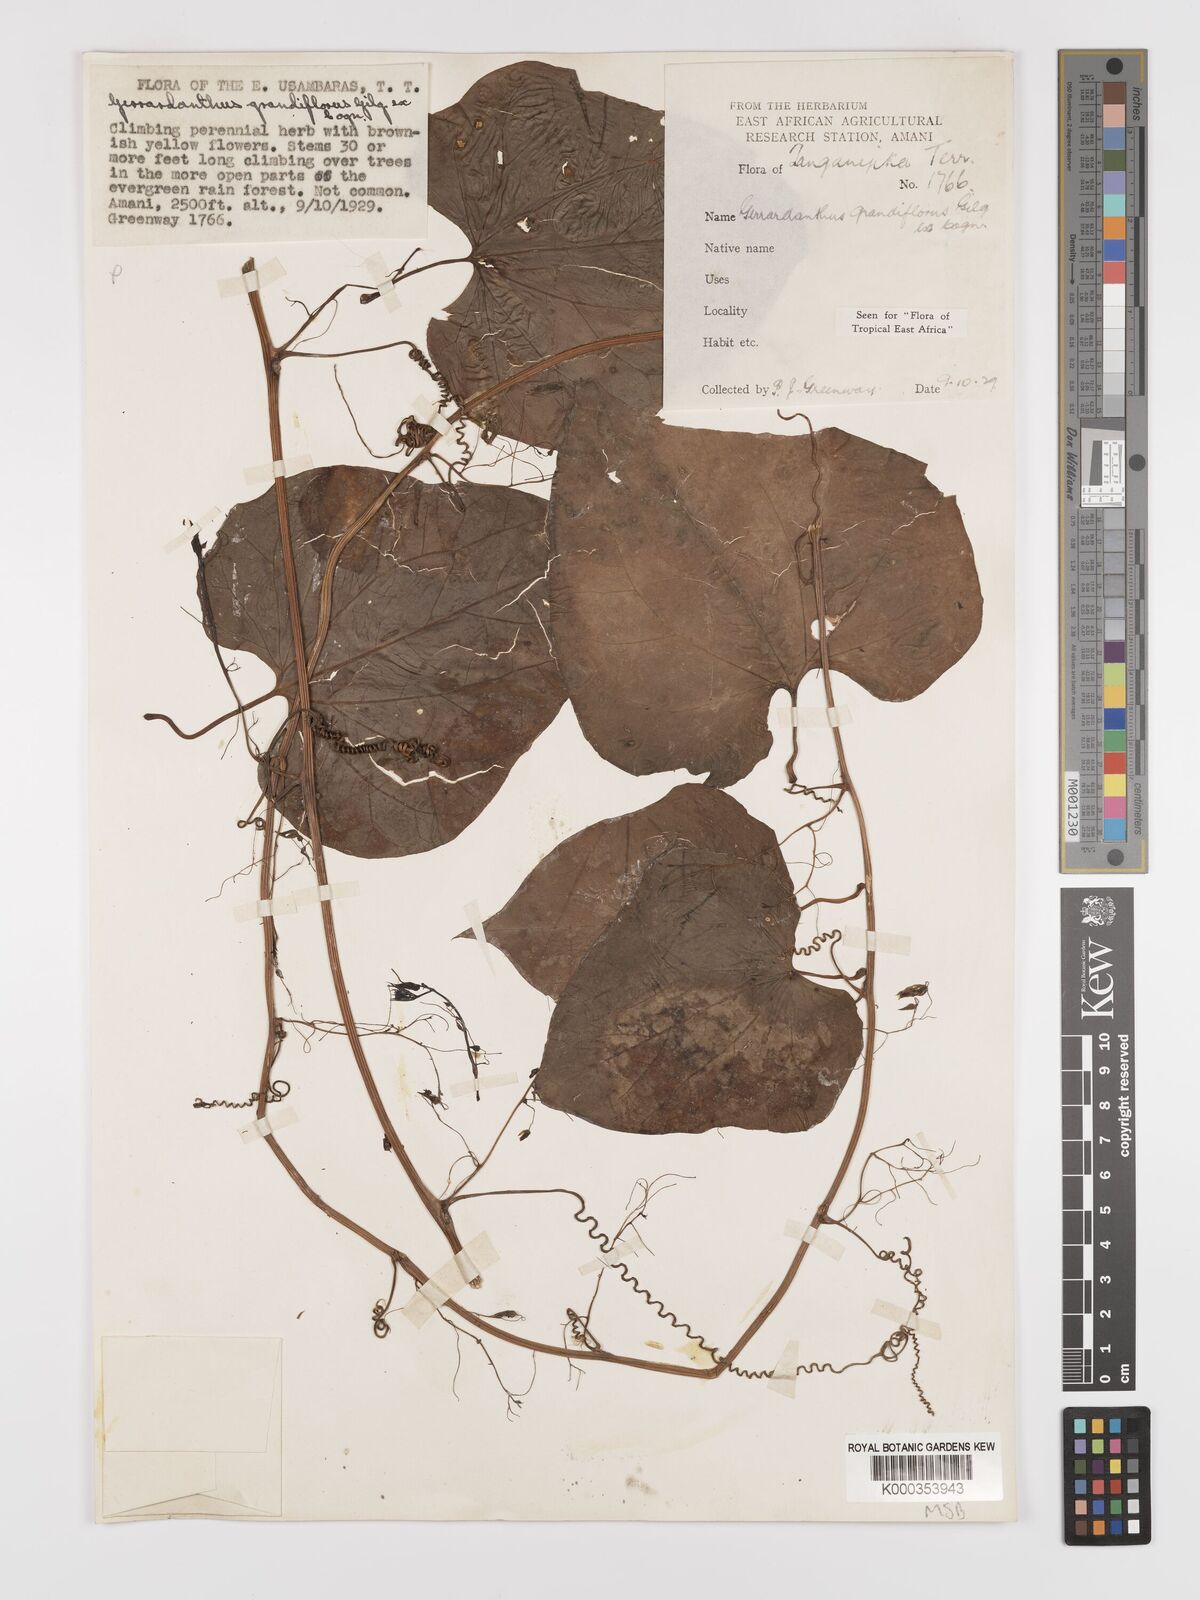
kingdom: Plantae
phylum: Tracheophyta
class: Magnoliopsida
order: Cucurbitales
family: Cucurbitaceae
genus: Gerrardanthus
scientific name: Gerrardanthus
